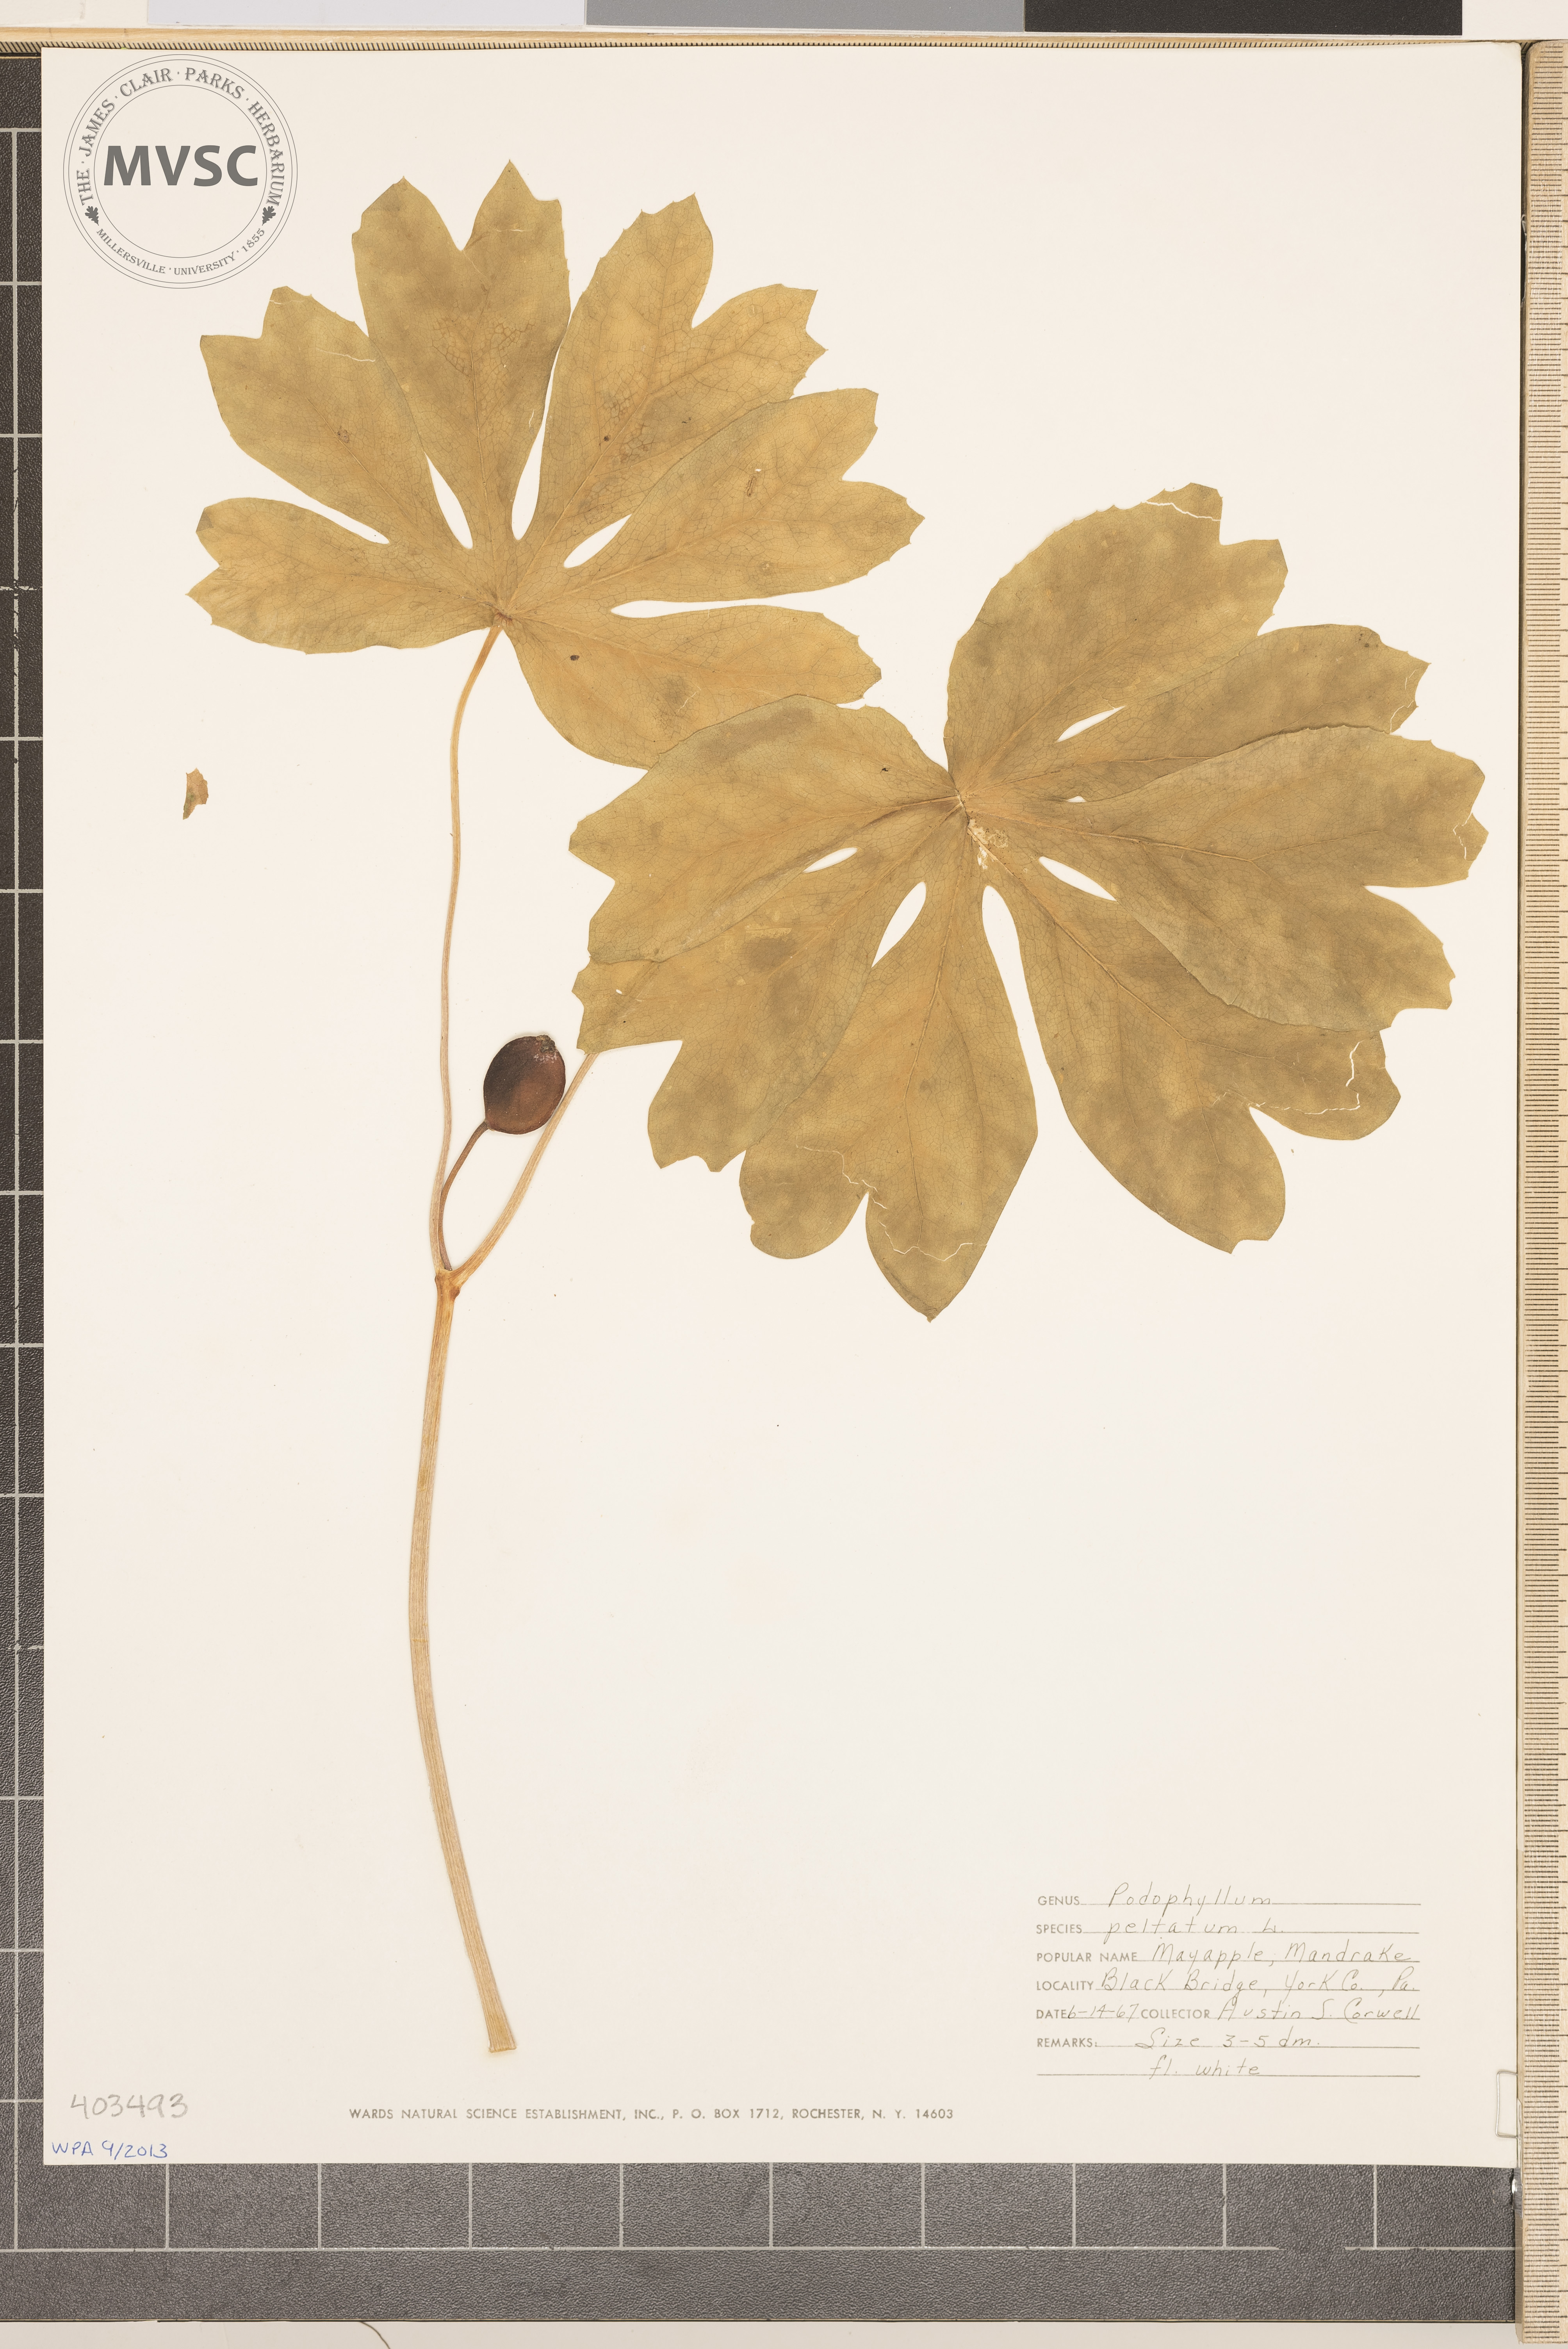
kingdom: Plantae
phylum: Tracheophyta
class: Magnoliopsida
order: Ranunculales
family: Berberidaceae
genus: Podophyllum
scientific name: Podophyllum peltatum
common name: May-Apple
